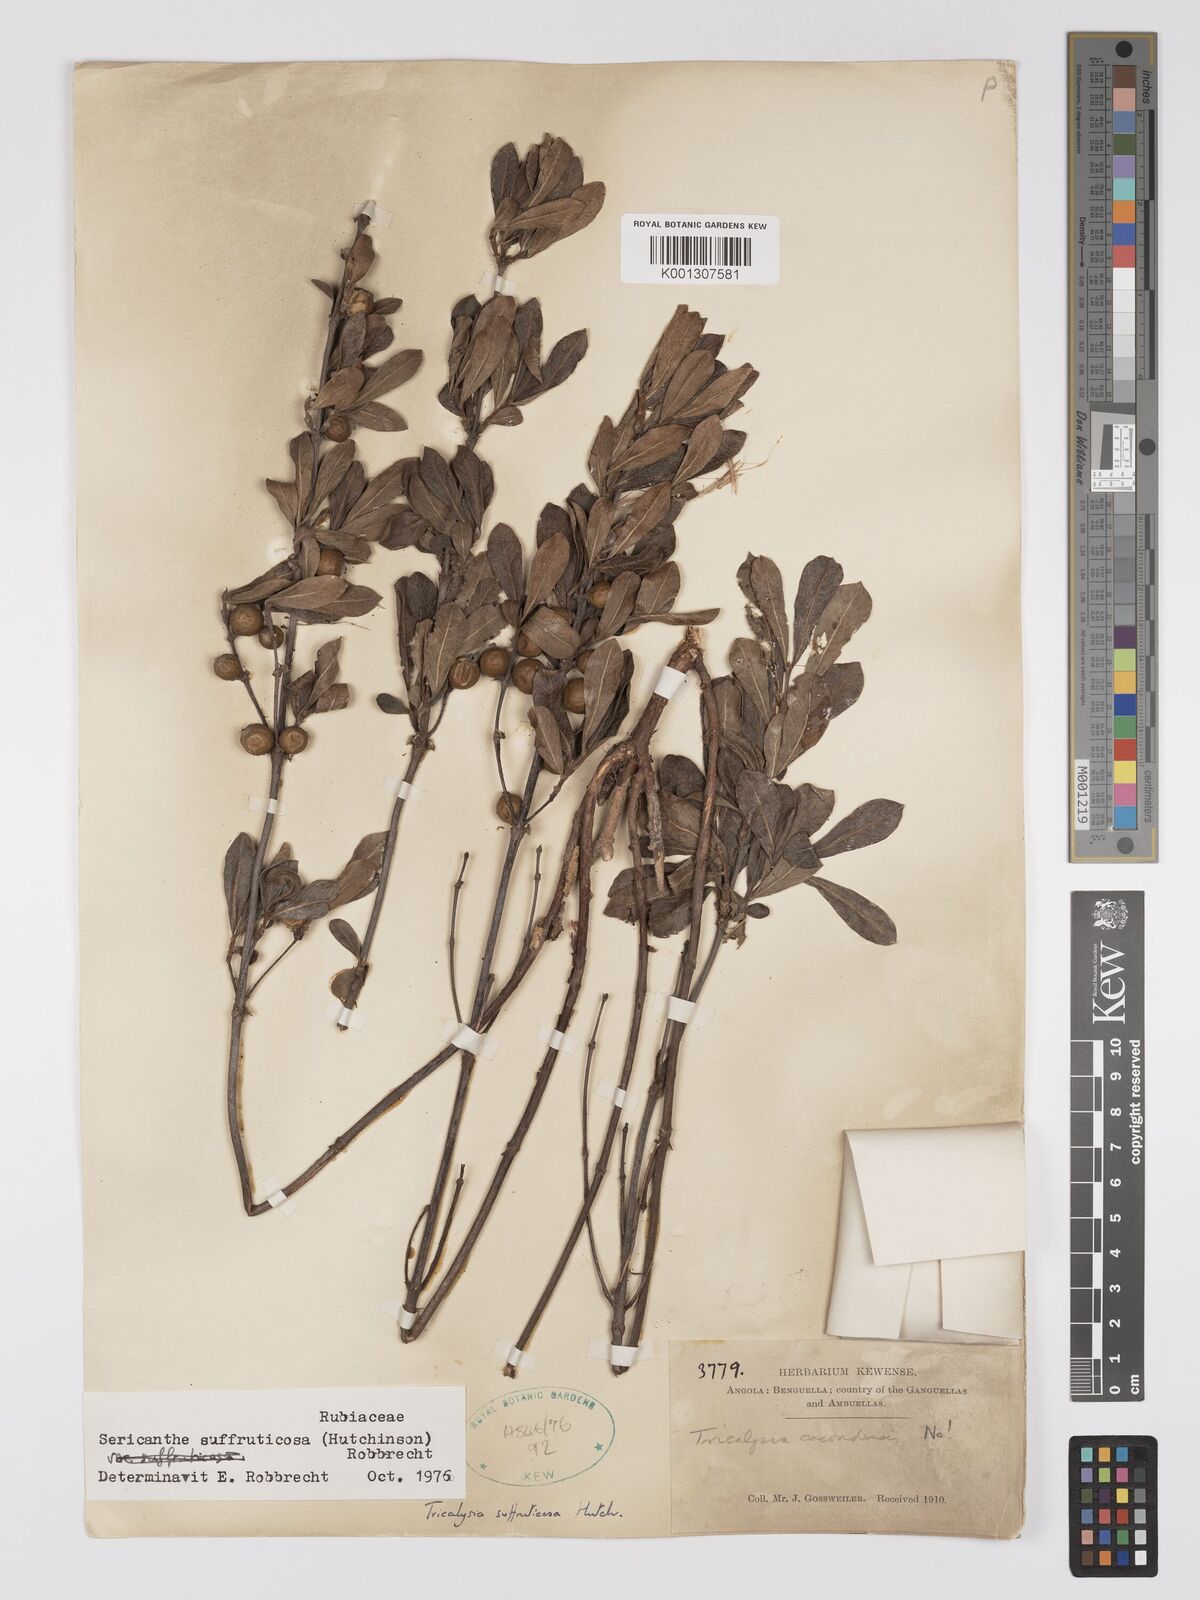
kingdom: Plantae
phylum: Tracheophyta
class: Magnoliopsida
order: Gentianales
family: Rubiaceae
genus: Sericanthe
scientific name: Sericanthe suffruticosa
